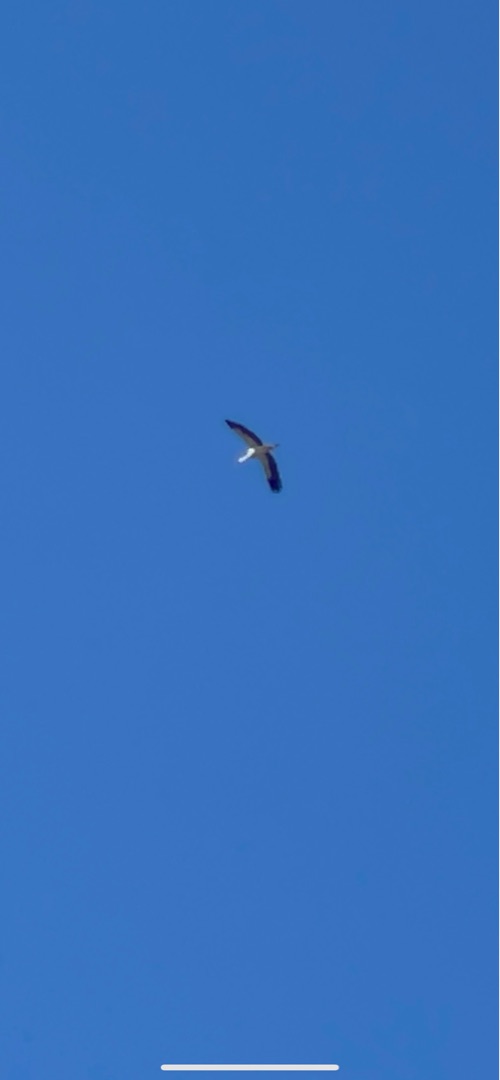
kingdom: Animalia
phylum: Chordata
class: Aves
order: Ciconiiformes
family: Ciconiidae
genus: Ciconia
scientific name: Ciconia ciconia
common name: Hvid stork
